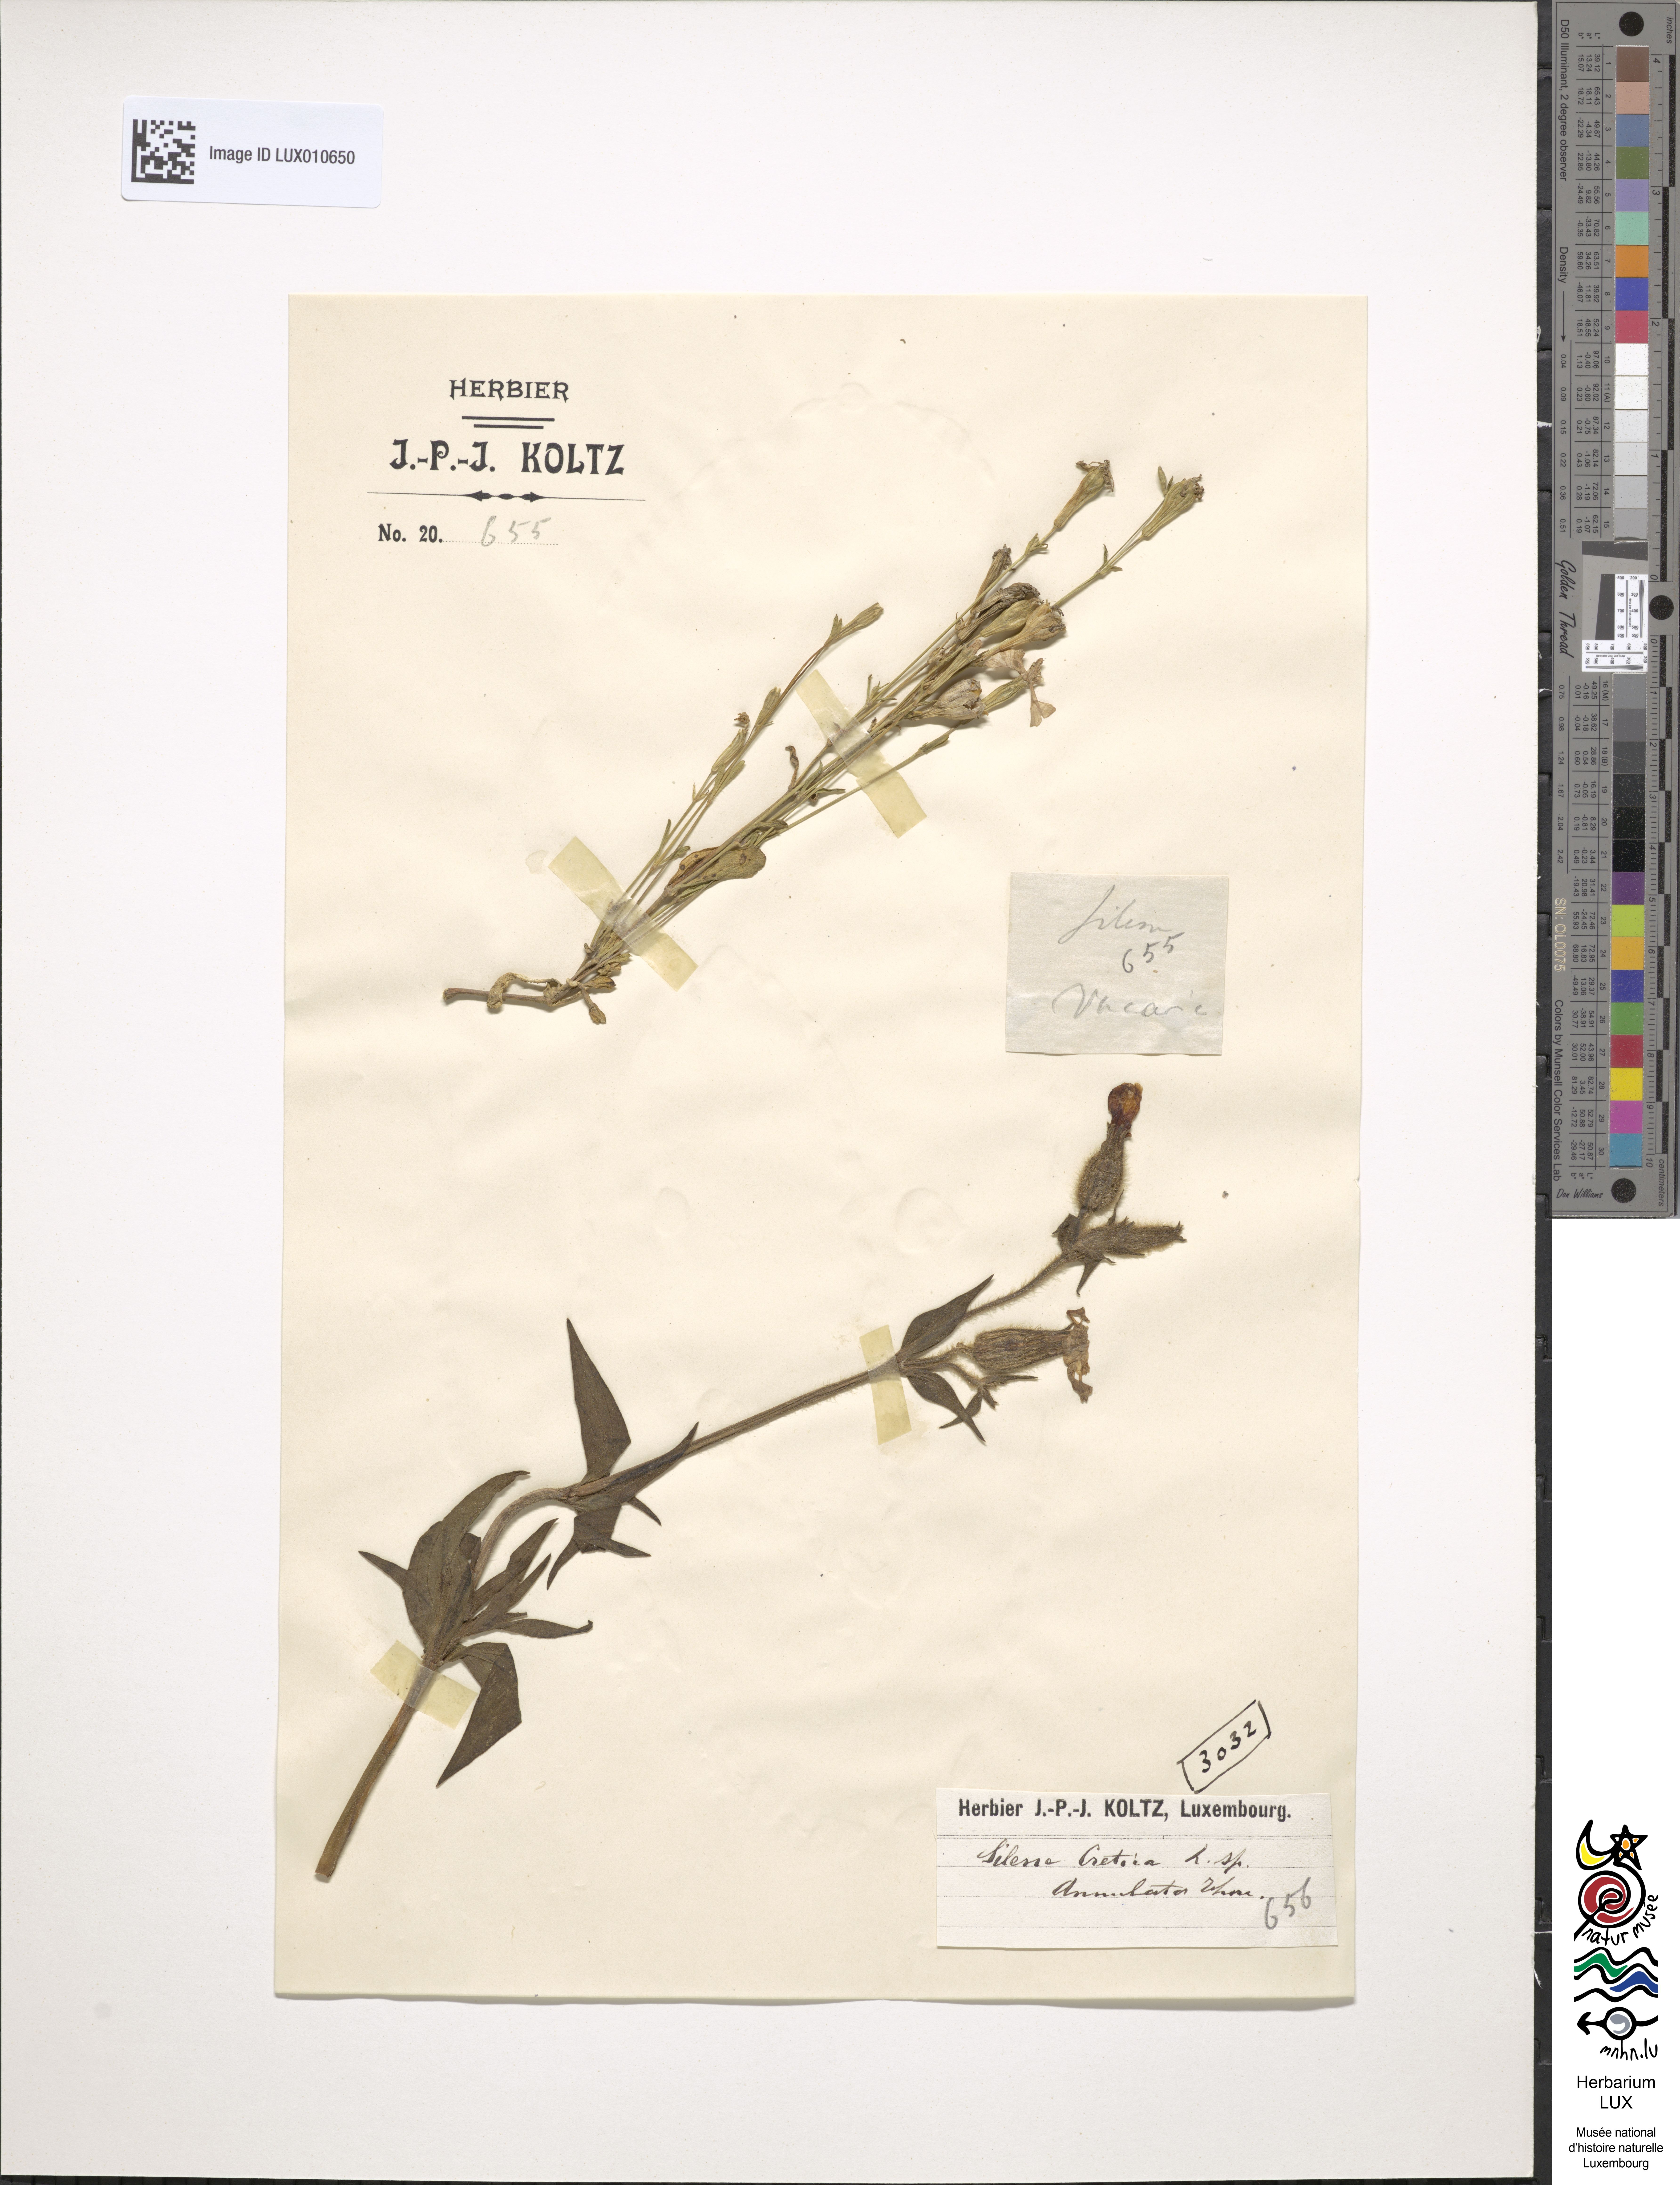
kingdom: Plantae
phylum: Tracheophyta
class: Magnoliopsida
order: Caryophyllales
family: Caryophyllaceae
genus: Silene
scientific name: Silene cretica
